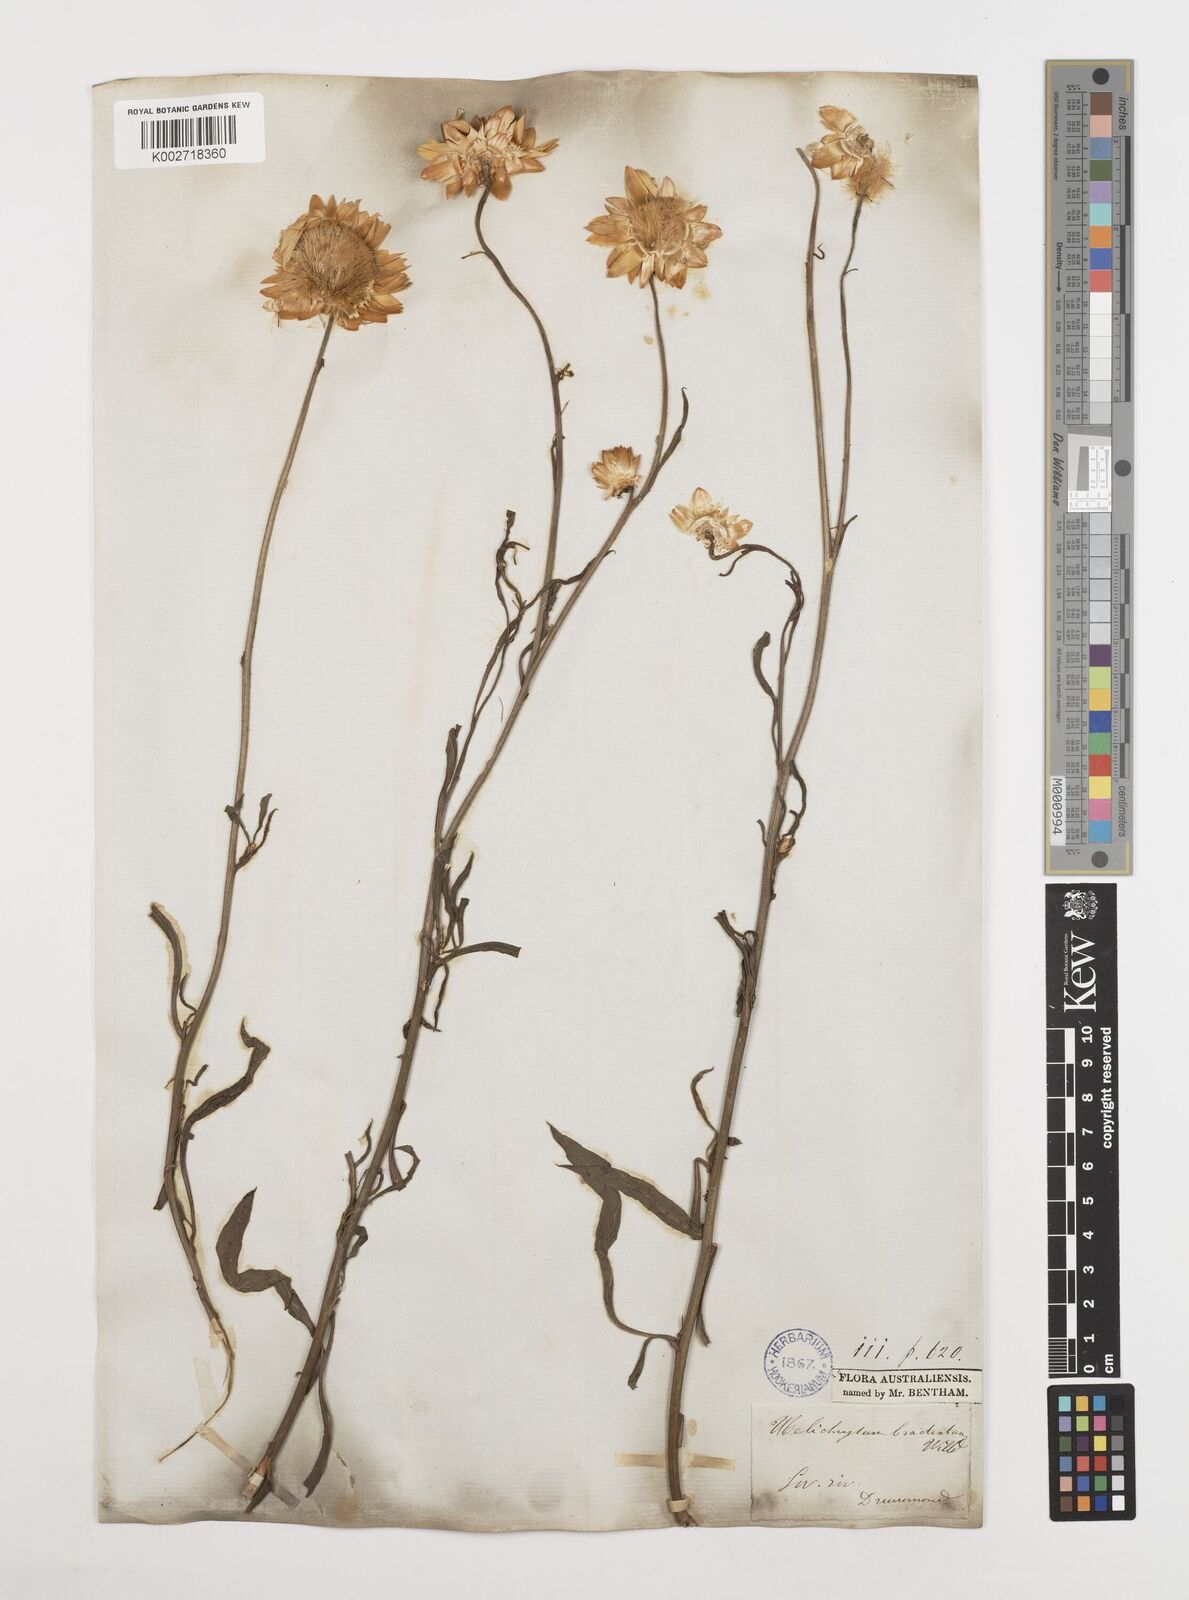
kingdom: Plantae
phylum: Tracheophyta
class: Magnoliopsida
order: Asterales
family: Asteraceae
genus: Xerochrysum
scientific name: Xerochrysum bracteatum
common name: Bracted strawflower
